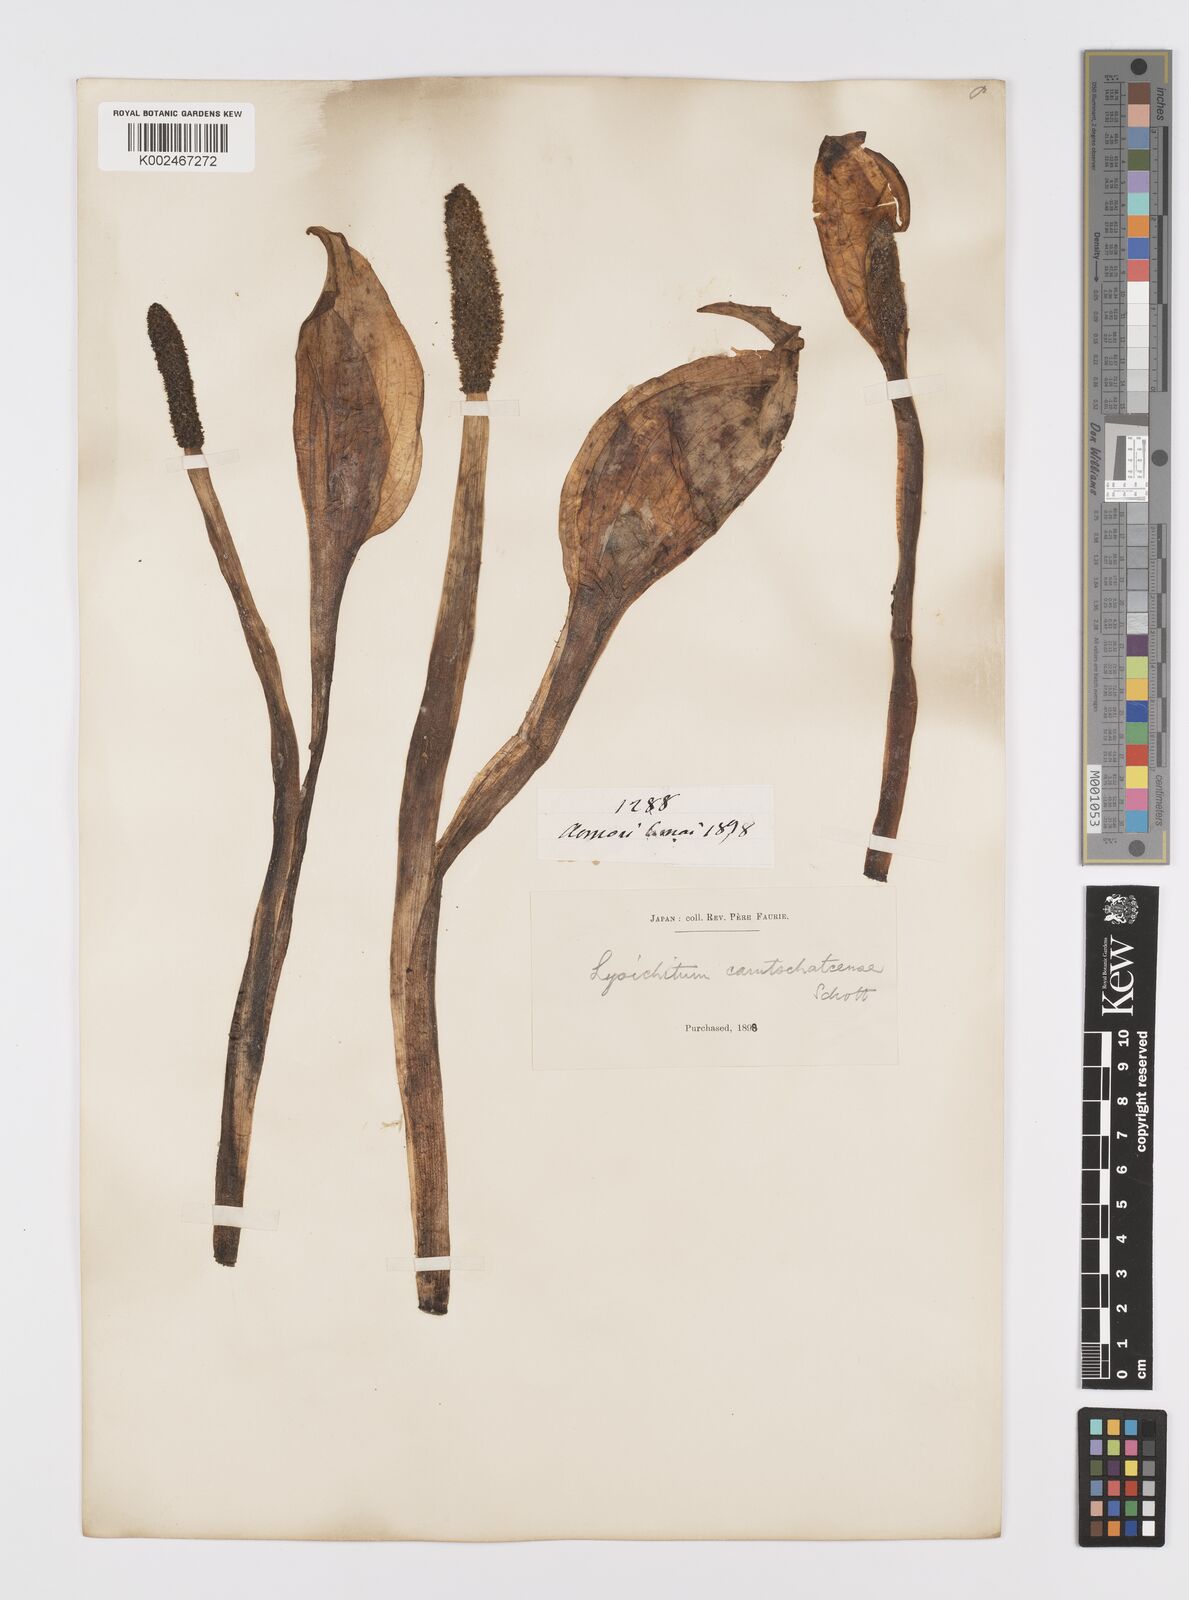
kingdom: Plantae
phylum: Tracheophyta
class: Liliopsida
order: Alismatales
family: Araceae
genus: Lysichiton
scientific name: Lysichiton camtschatcensis
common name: Asian skunk-cabbage
